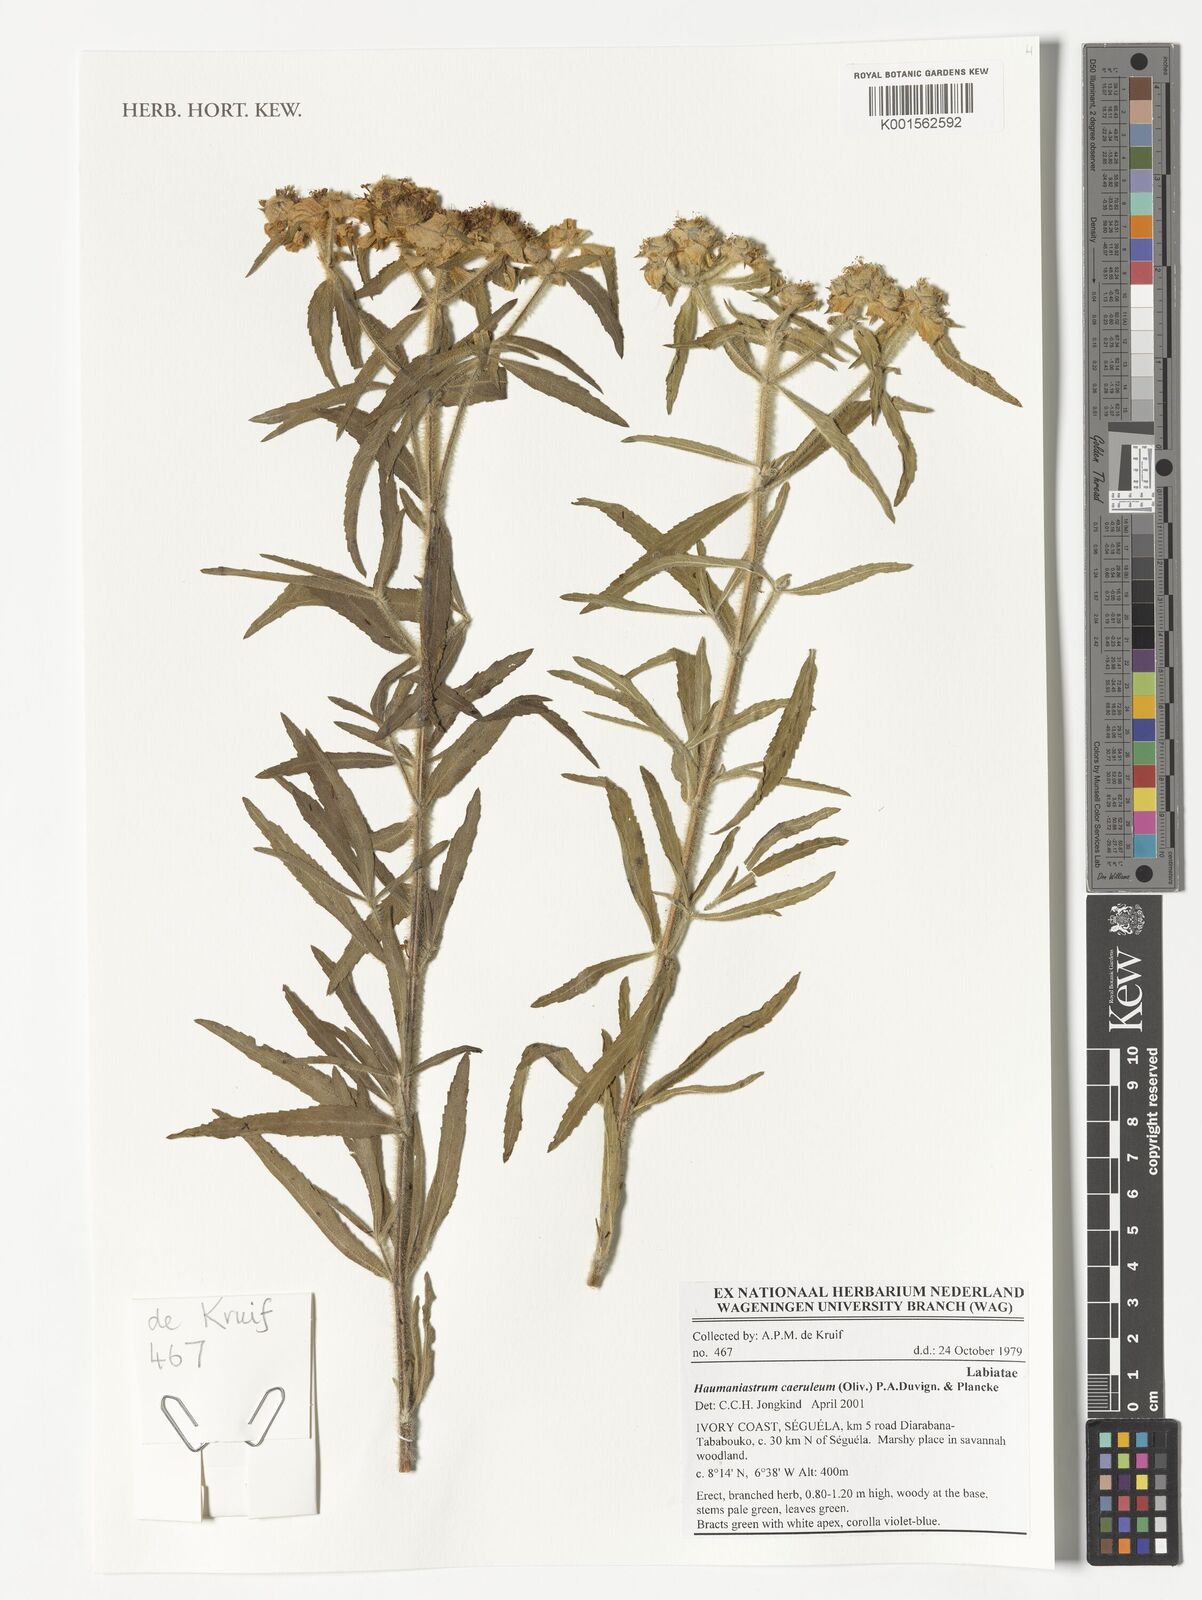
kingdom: Plantae
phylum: Tracheophyta
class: Magnoliopsida
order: Lamiales
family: Lamiaceae
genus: Haumaniastrum
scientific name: Haumaniastrum caeruleum
